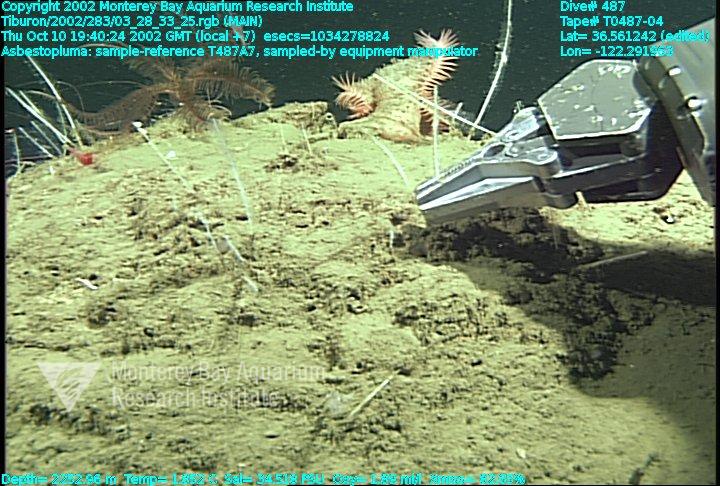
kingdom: Animalia
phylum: Porifera
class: Demospongiae
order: Poecilosclerida
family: Cladorhizidae
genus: Asbestopluma
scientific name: Asbestopluma
